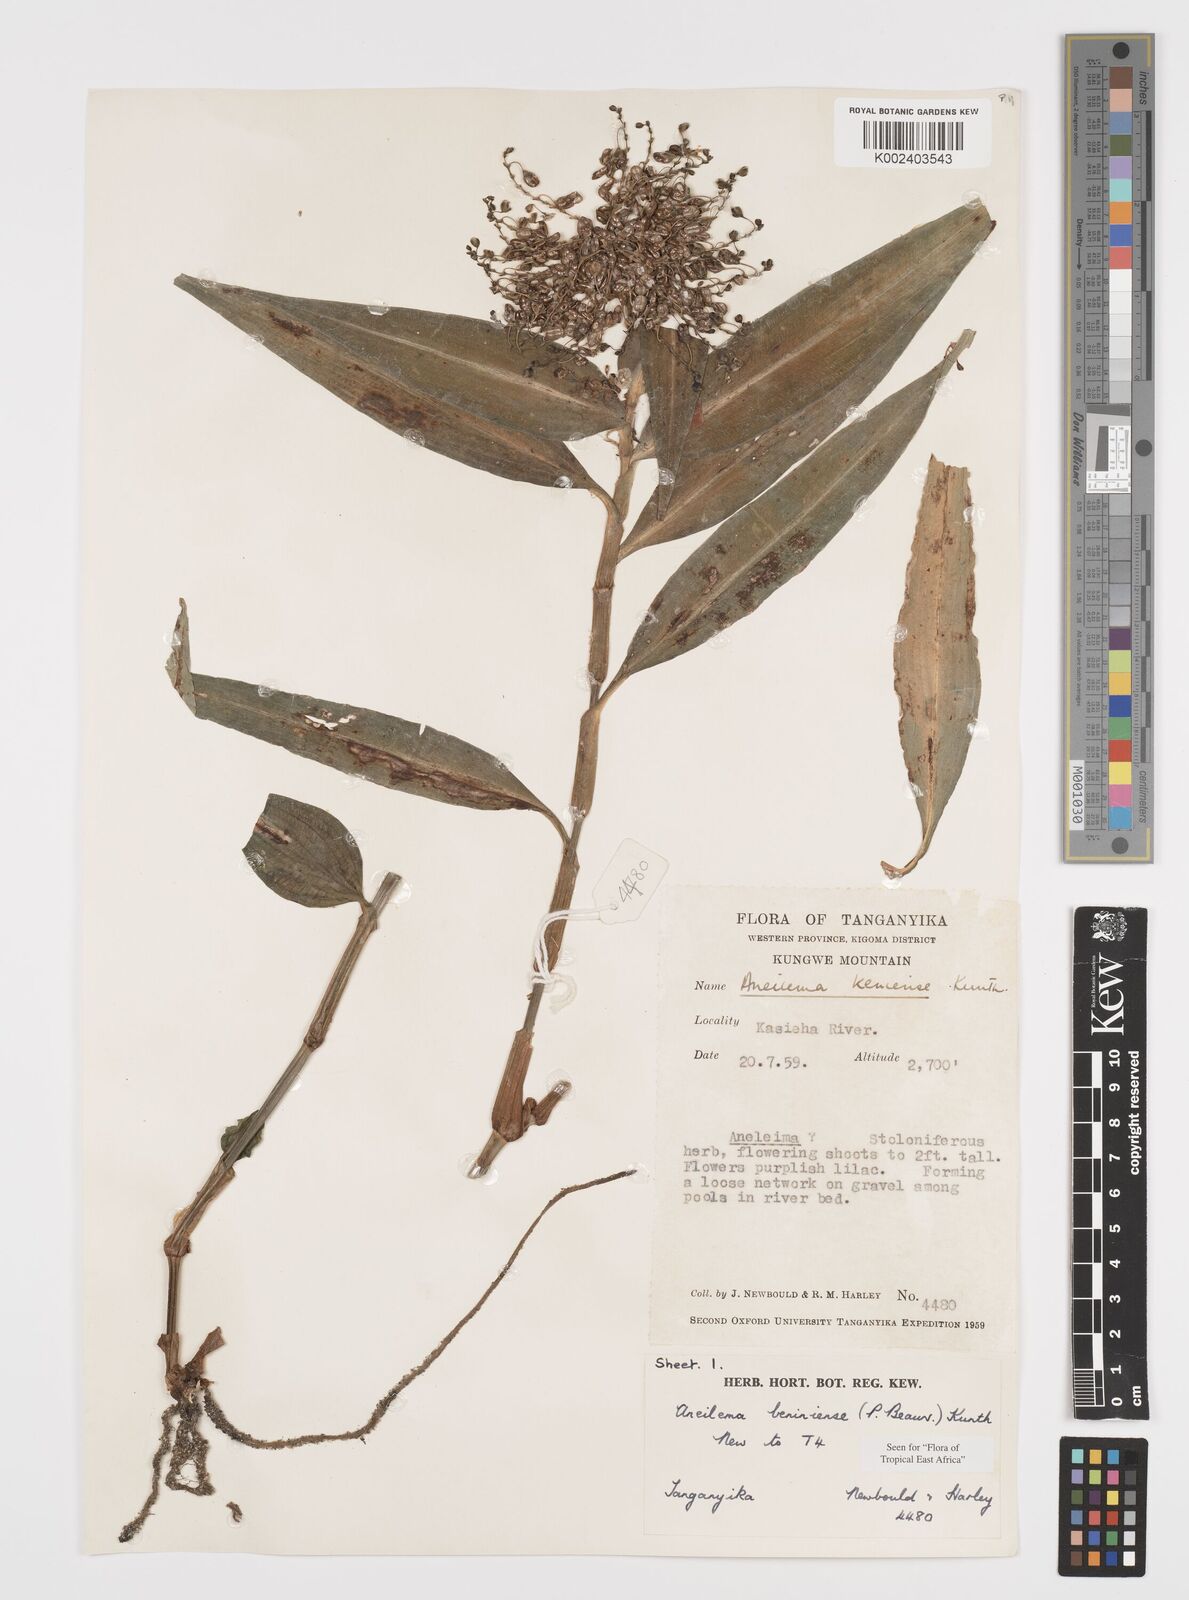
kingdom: Plantae
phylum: Tracheophyta
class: Liliopsida
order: Commelinales
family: Commelinaceae
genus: Aneilema
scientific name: Aneilema beniniense
